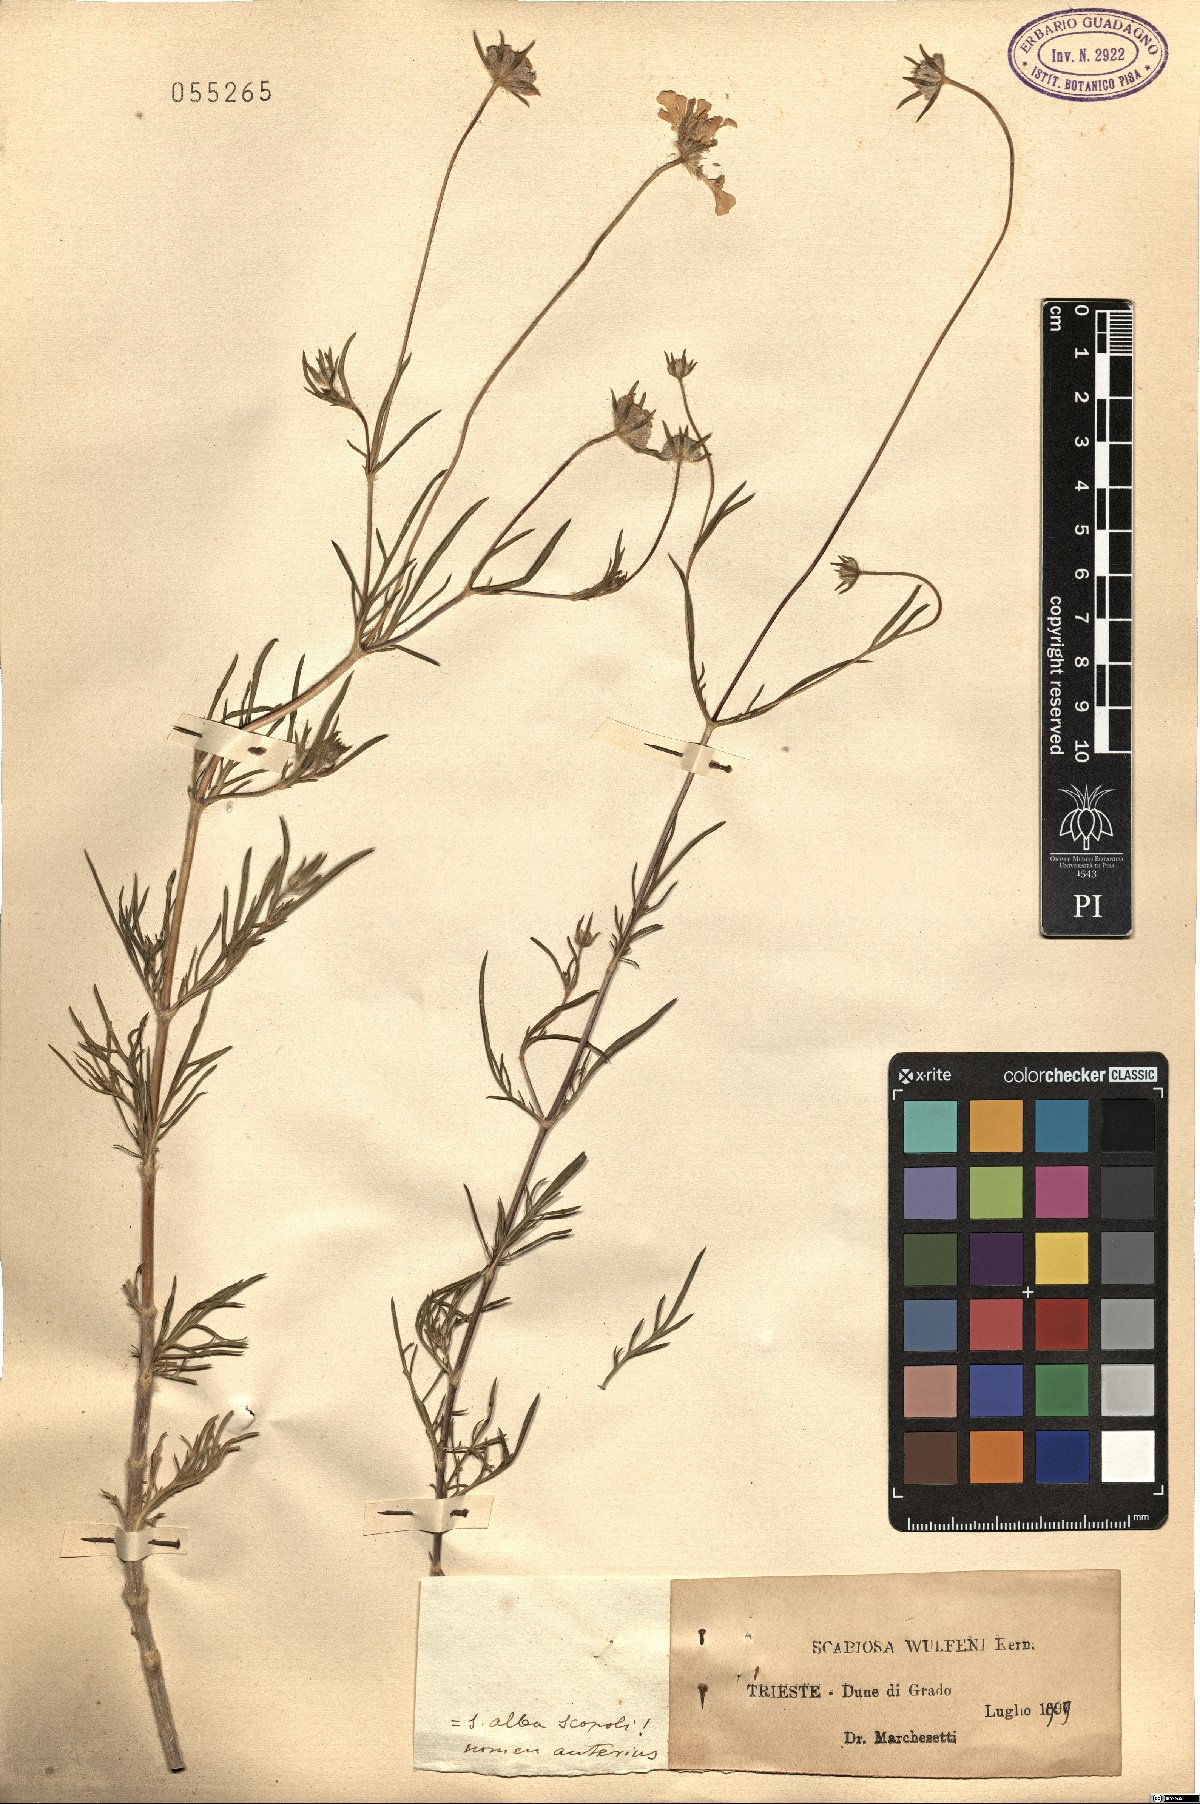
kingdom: Plantae
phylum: Tracheophyta
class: Magnoliopsida
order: Dipsacales
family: Caprifoliaceae
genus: Lomelosia
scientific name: Lomelosia argentea
